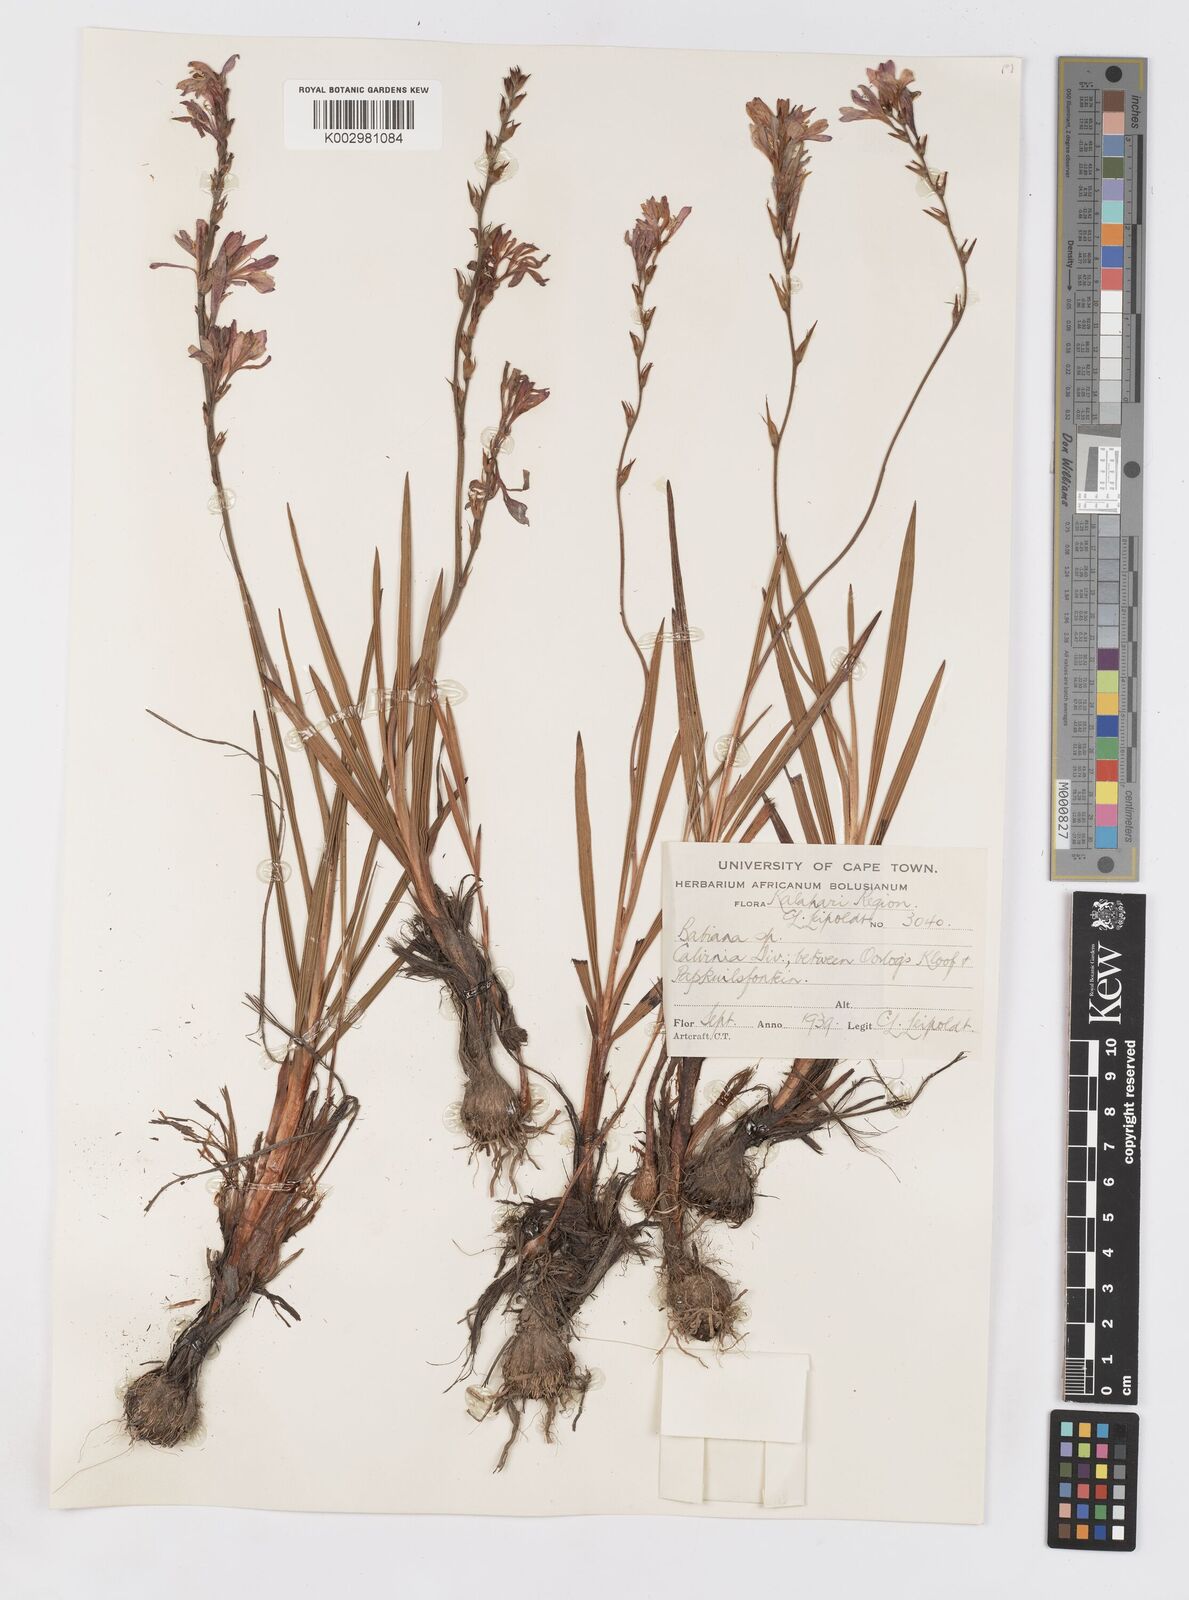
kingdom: Plantae
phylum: Tracheophyta
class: Liliopsida
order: Asparagales
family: Iridaceae
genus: Babiana
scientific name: Babiana lineolata
